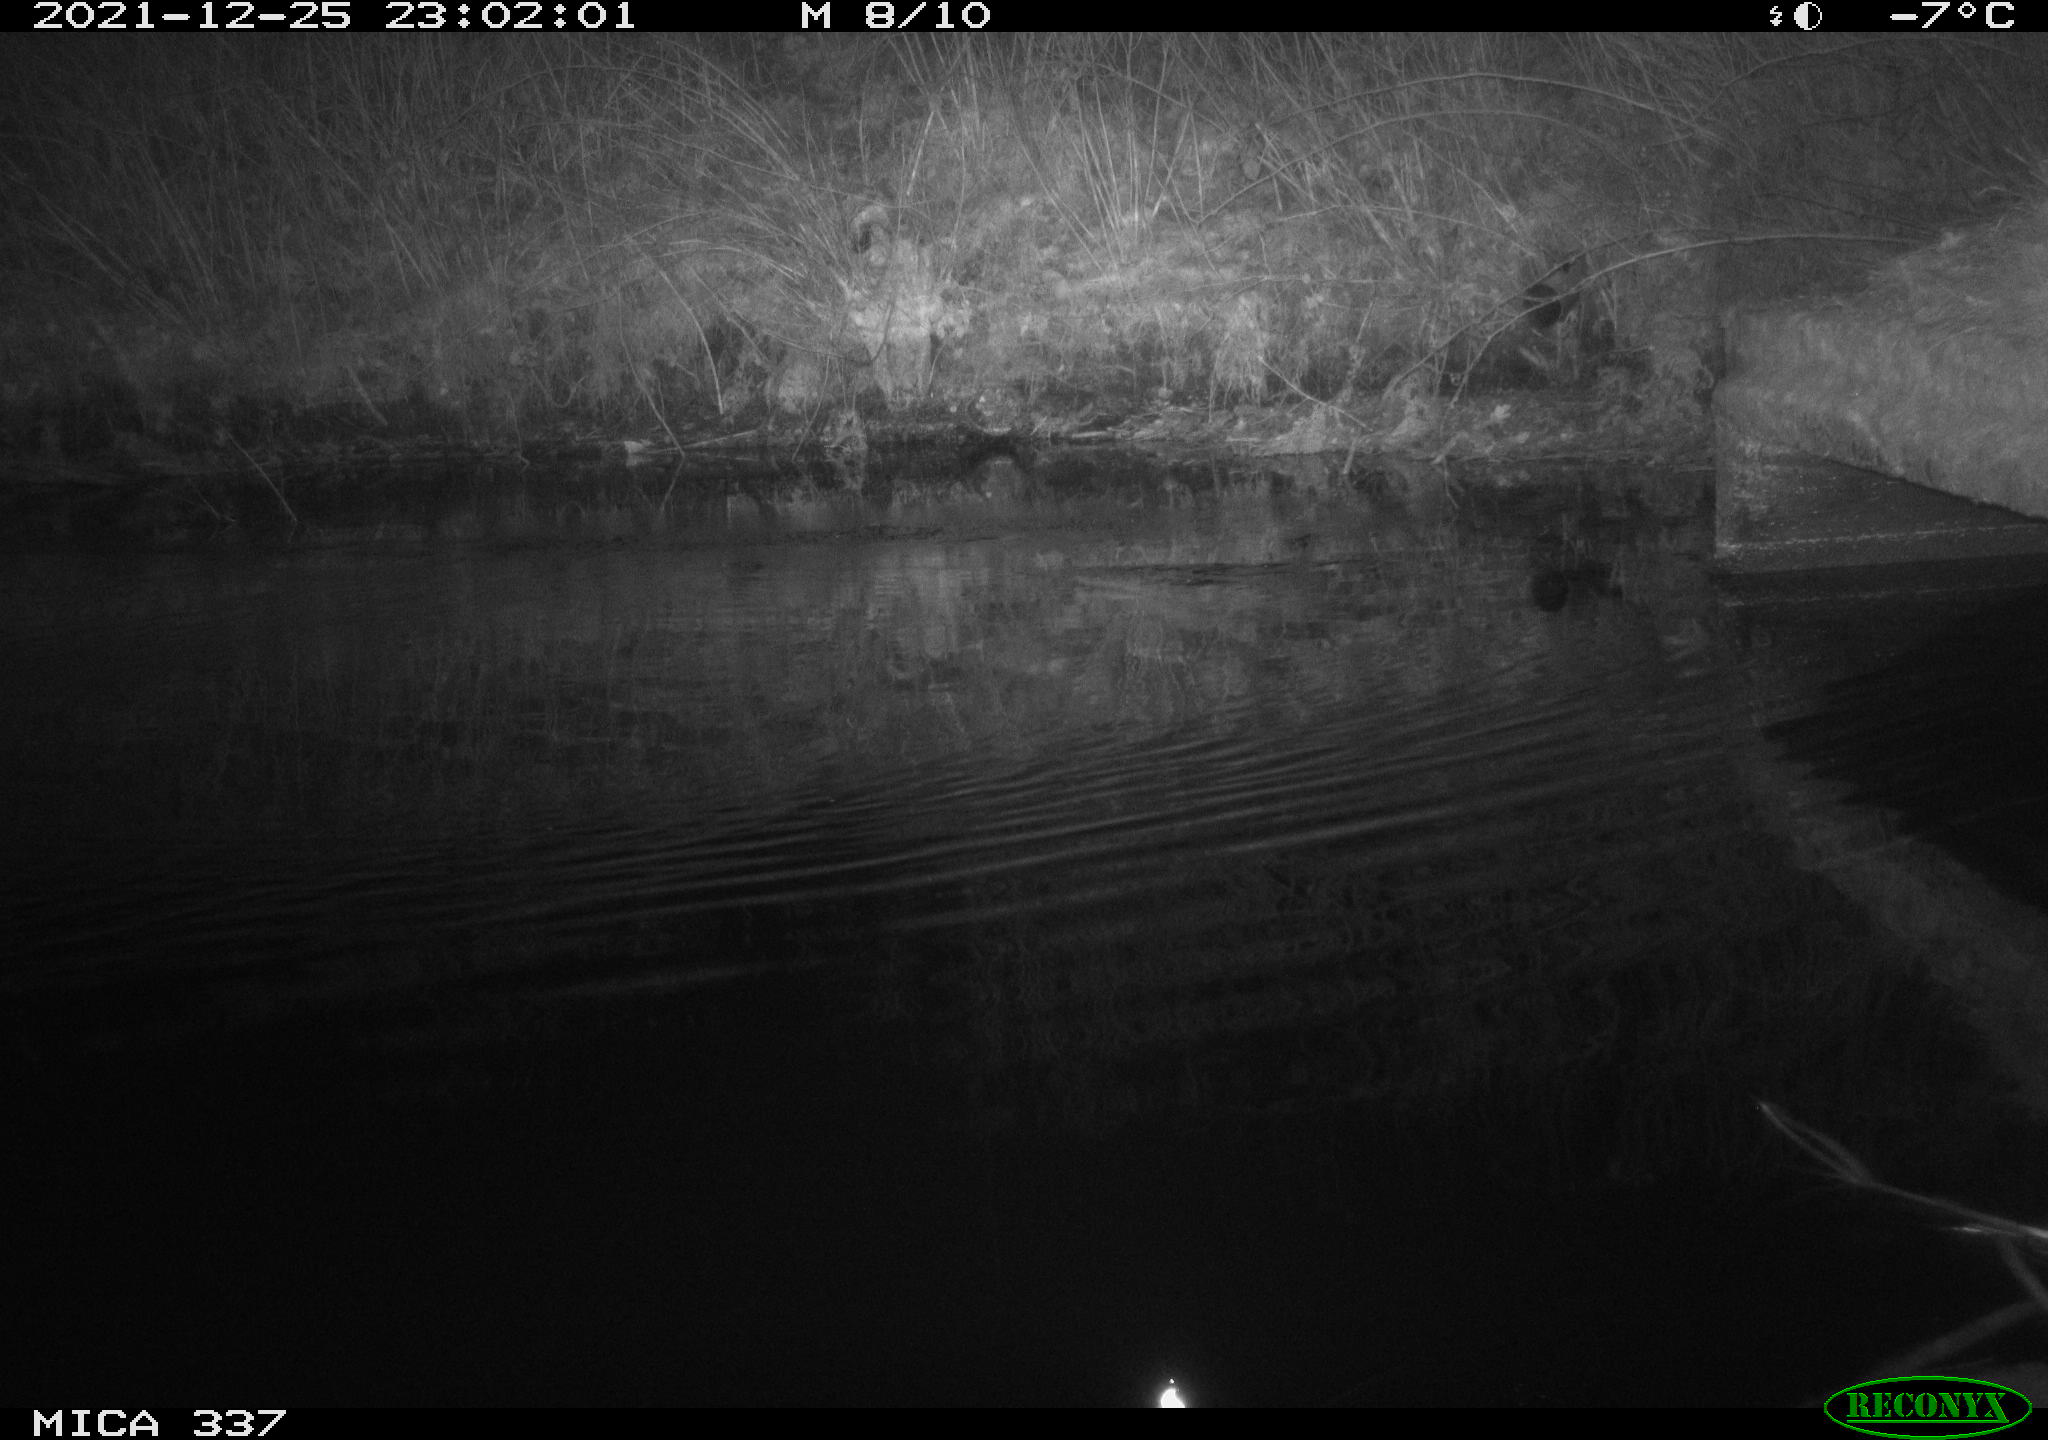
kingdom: Animalia
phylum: Chordata
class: Aves
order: Anseriformes
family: Anatidae
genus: Anas
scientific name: Anas platyrhynchos
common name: Mallard
